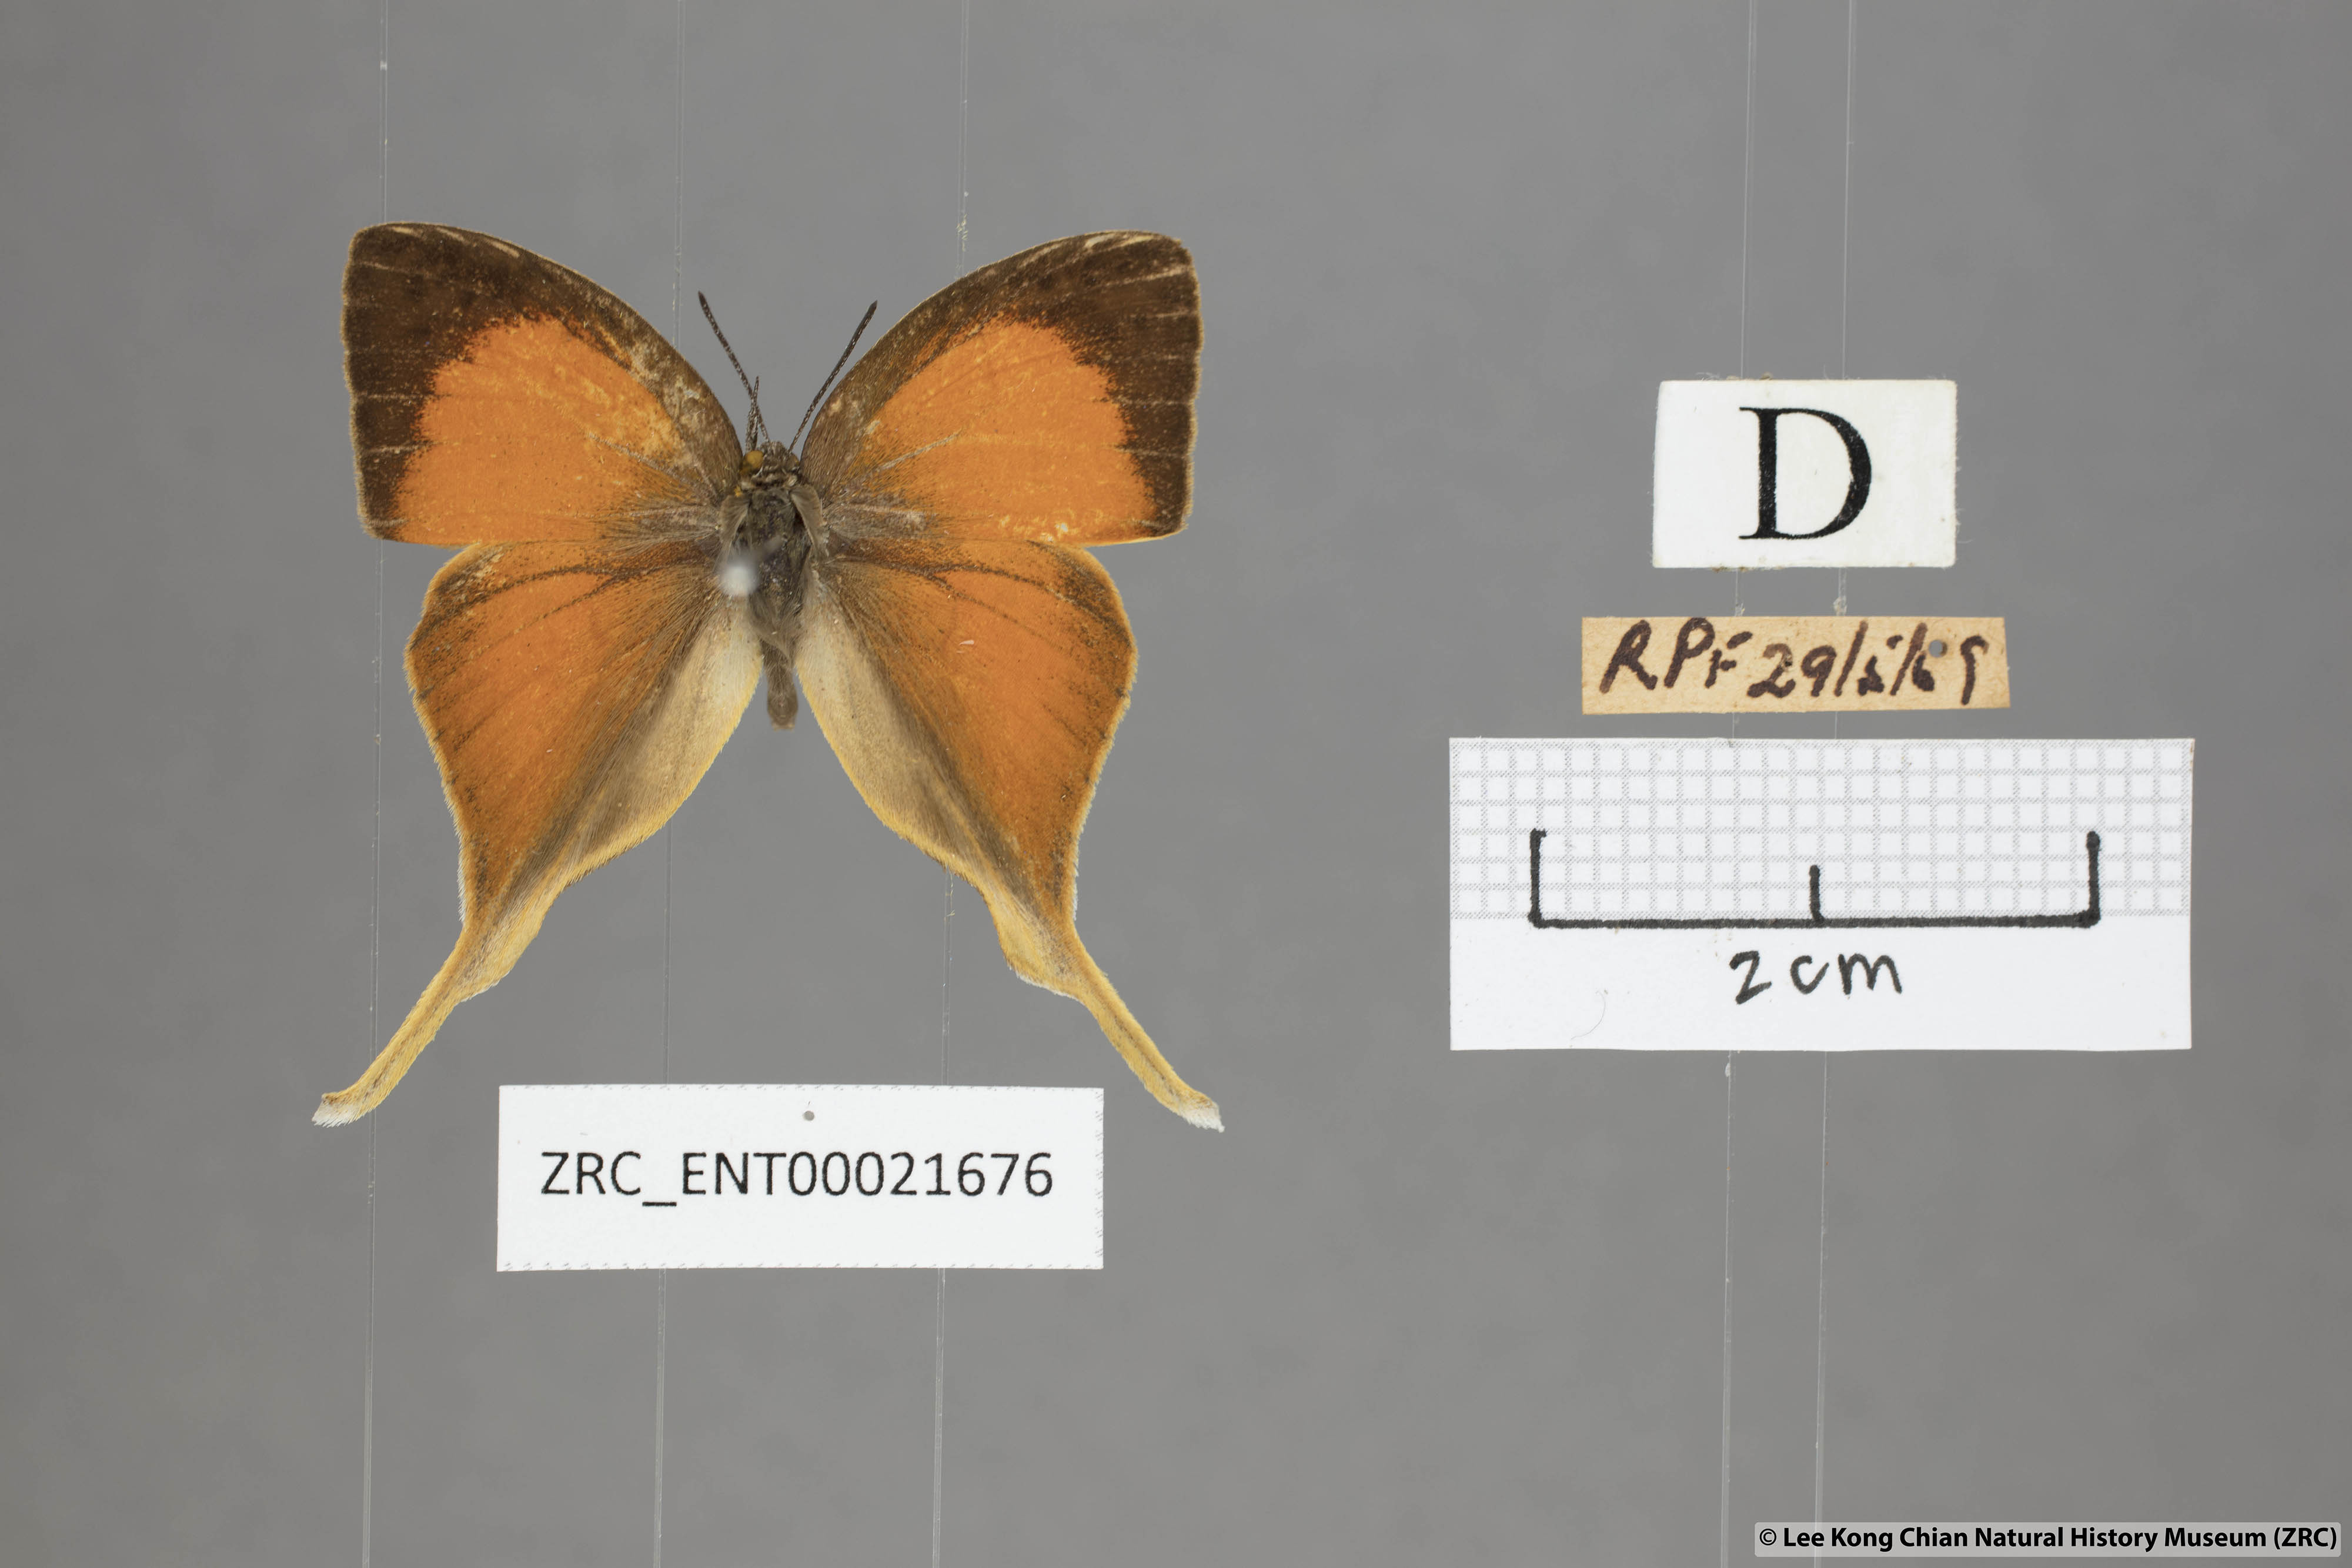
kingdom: Animalia
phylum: Arthropoda
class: Insecta
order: Lepidoptera
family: Lycaenidae
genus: Loxura
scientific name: Loxura cassiopeia
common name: Malayan yamfly
